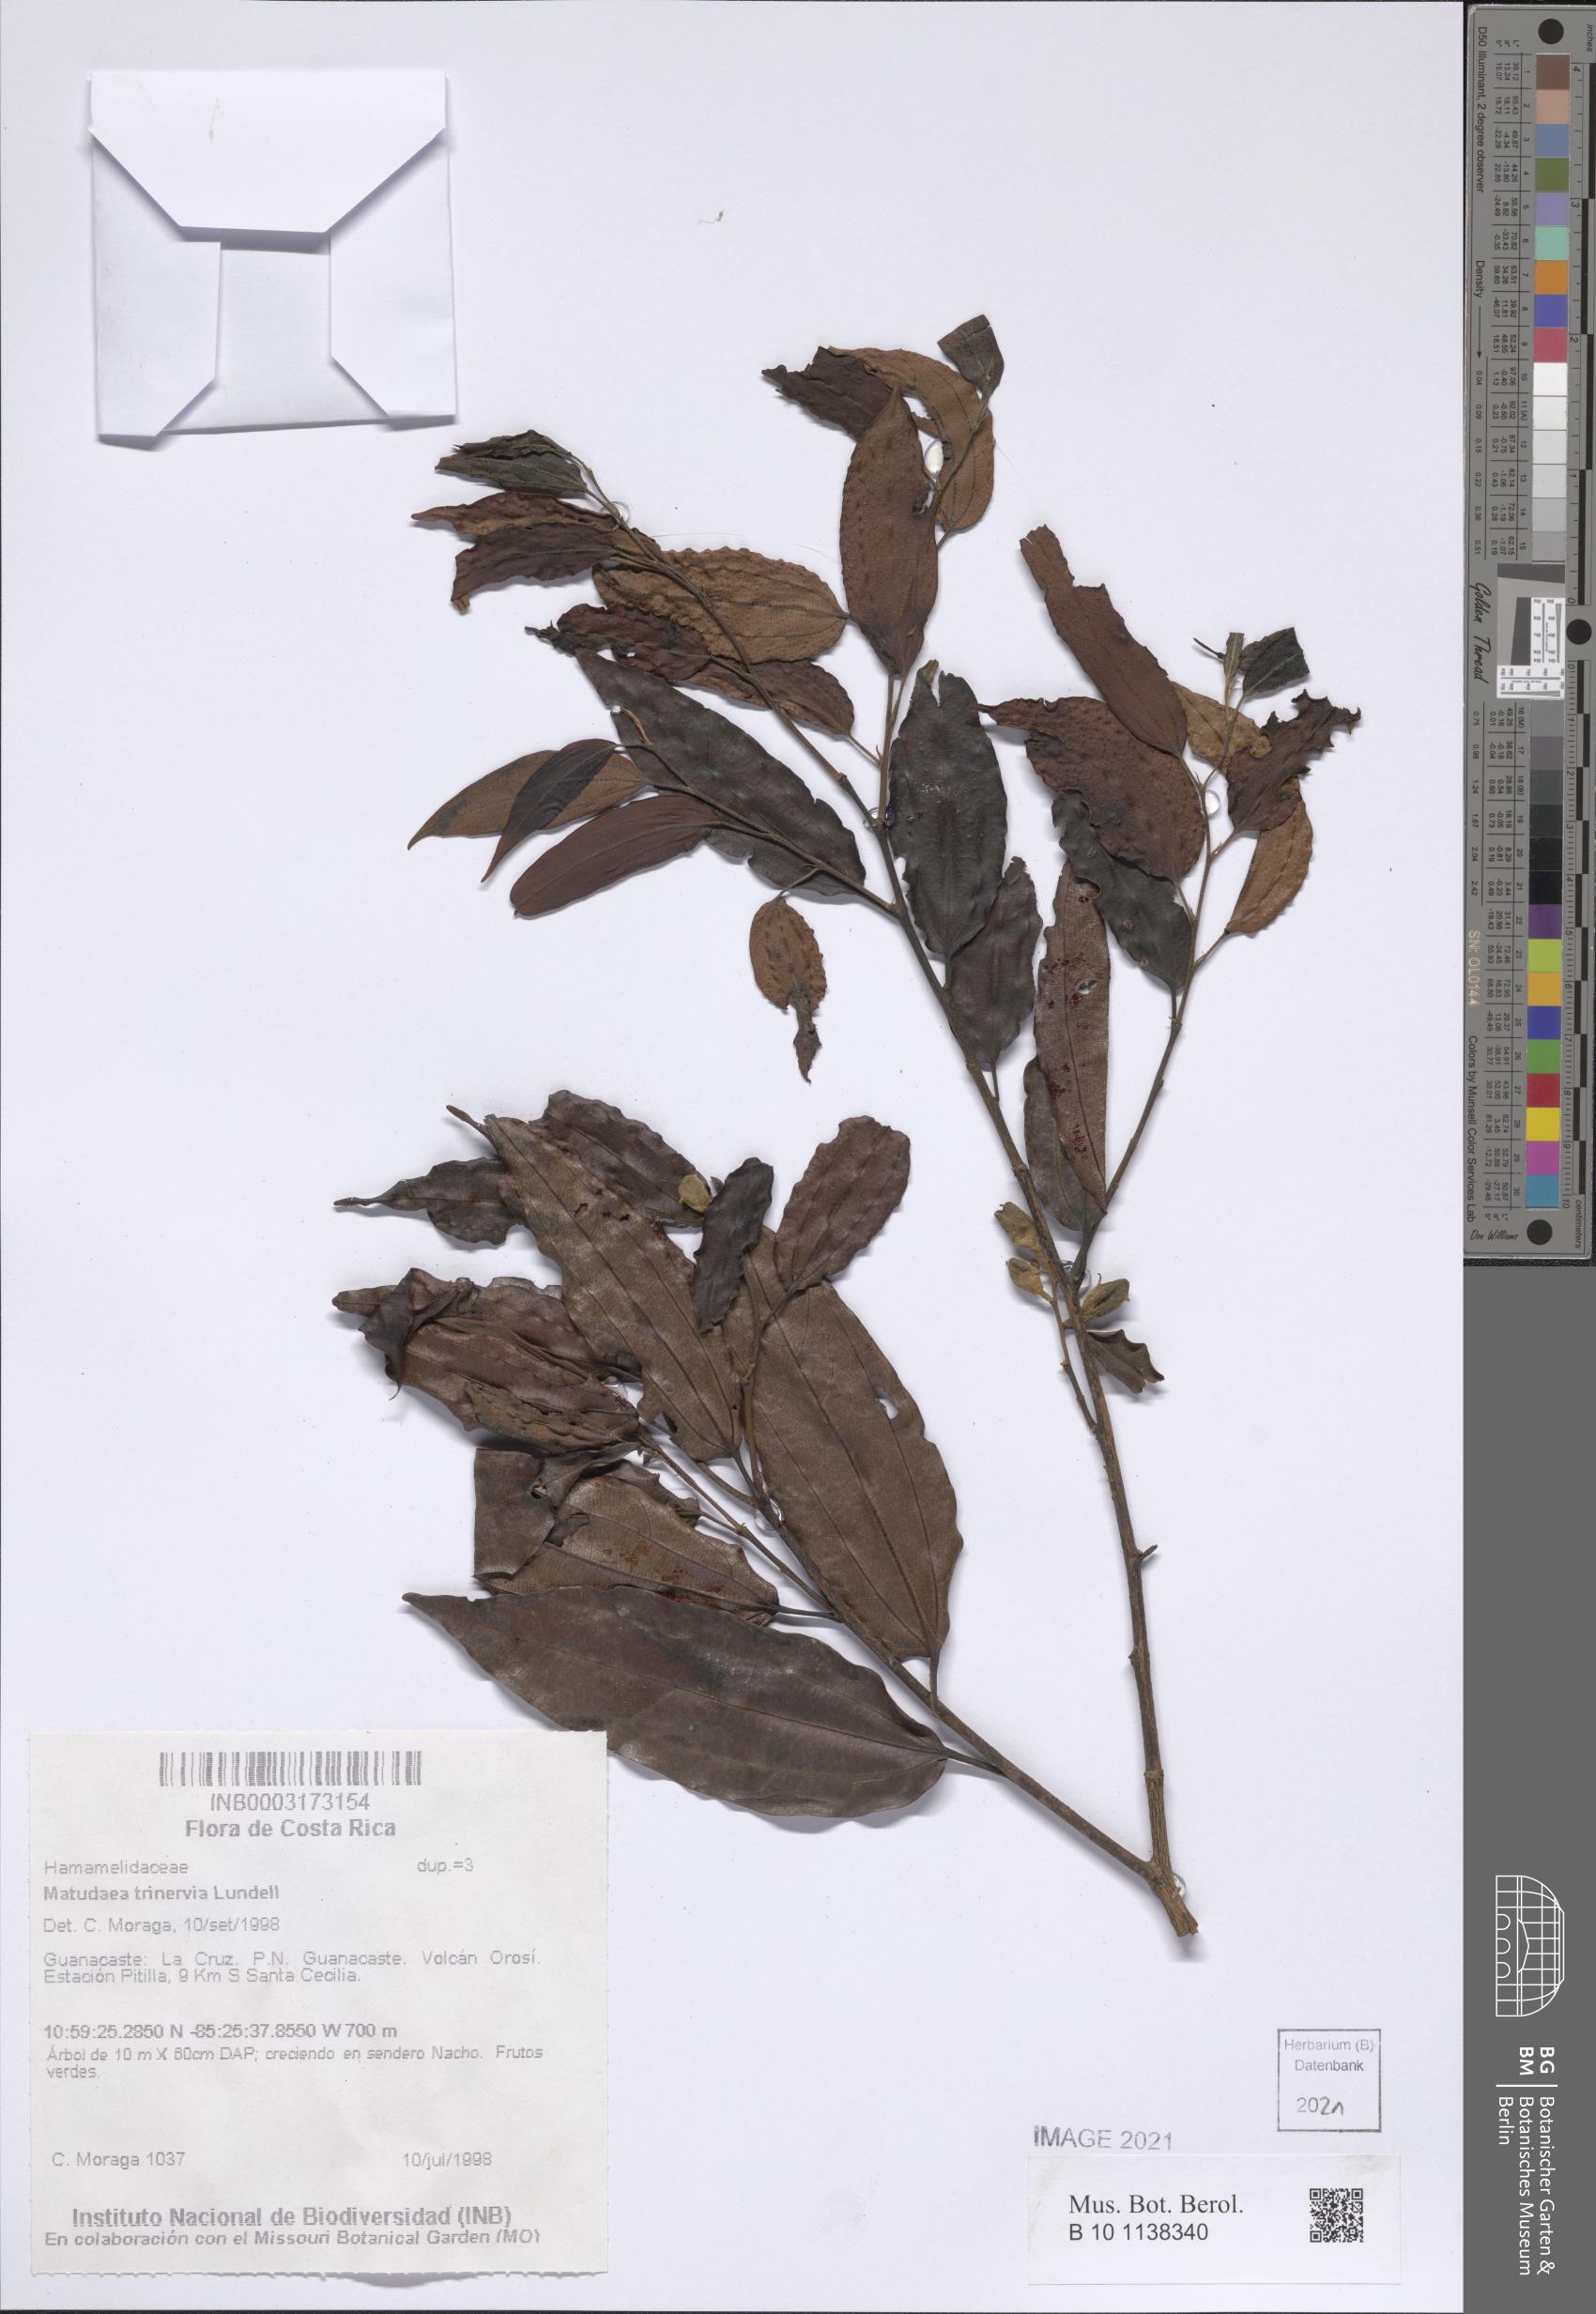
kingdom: Plantae
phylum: Tracheophyta
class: Magnoliopsida
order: Saxifragales
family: Hamamelidaceae
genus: Matudaea
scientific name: Matudaea trinervia
